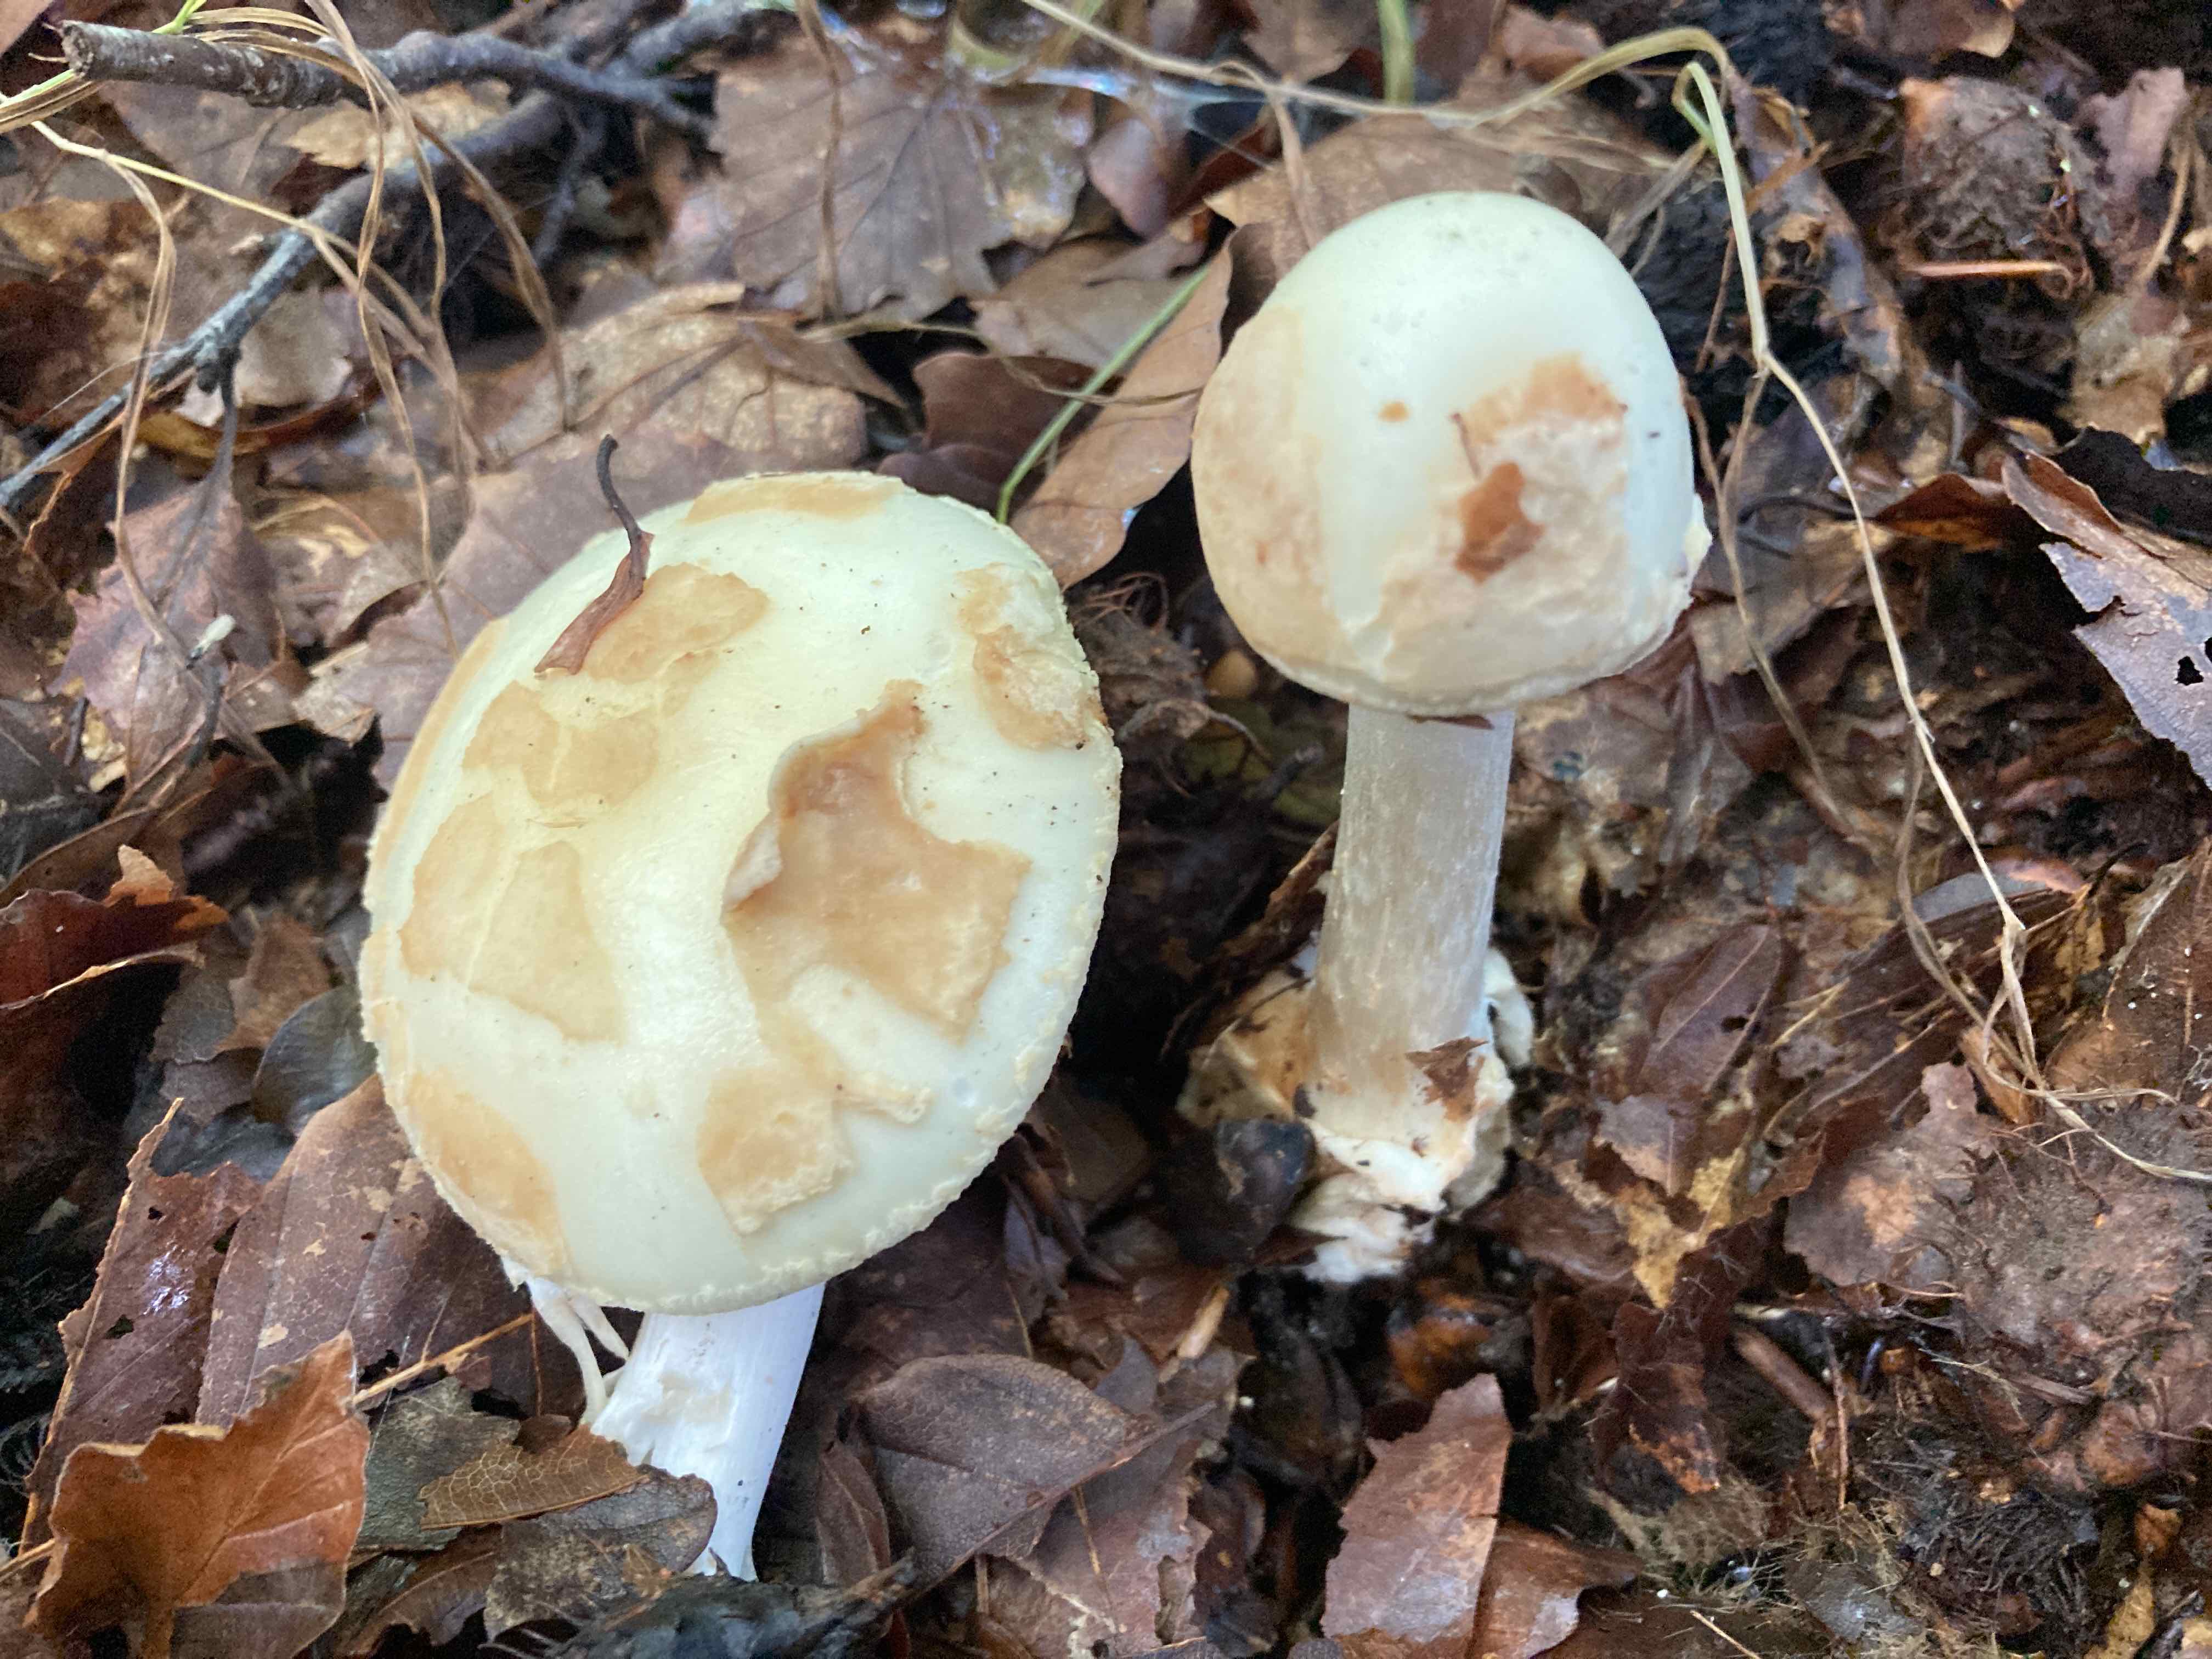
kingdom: Fungi
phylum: Basidiomycota
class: Agaricomycetes
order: Agaricales
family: Amanitaceae
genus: Amanita
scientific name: Amanita citrina
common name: kugleknoldet fluesvamp
